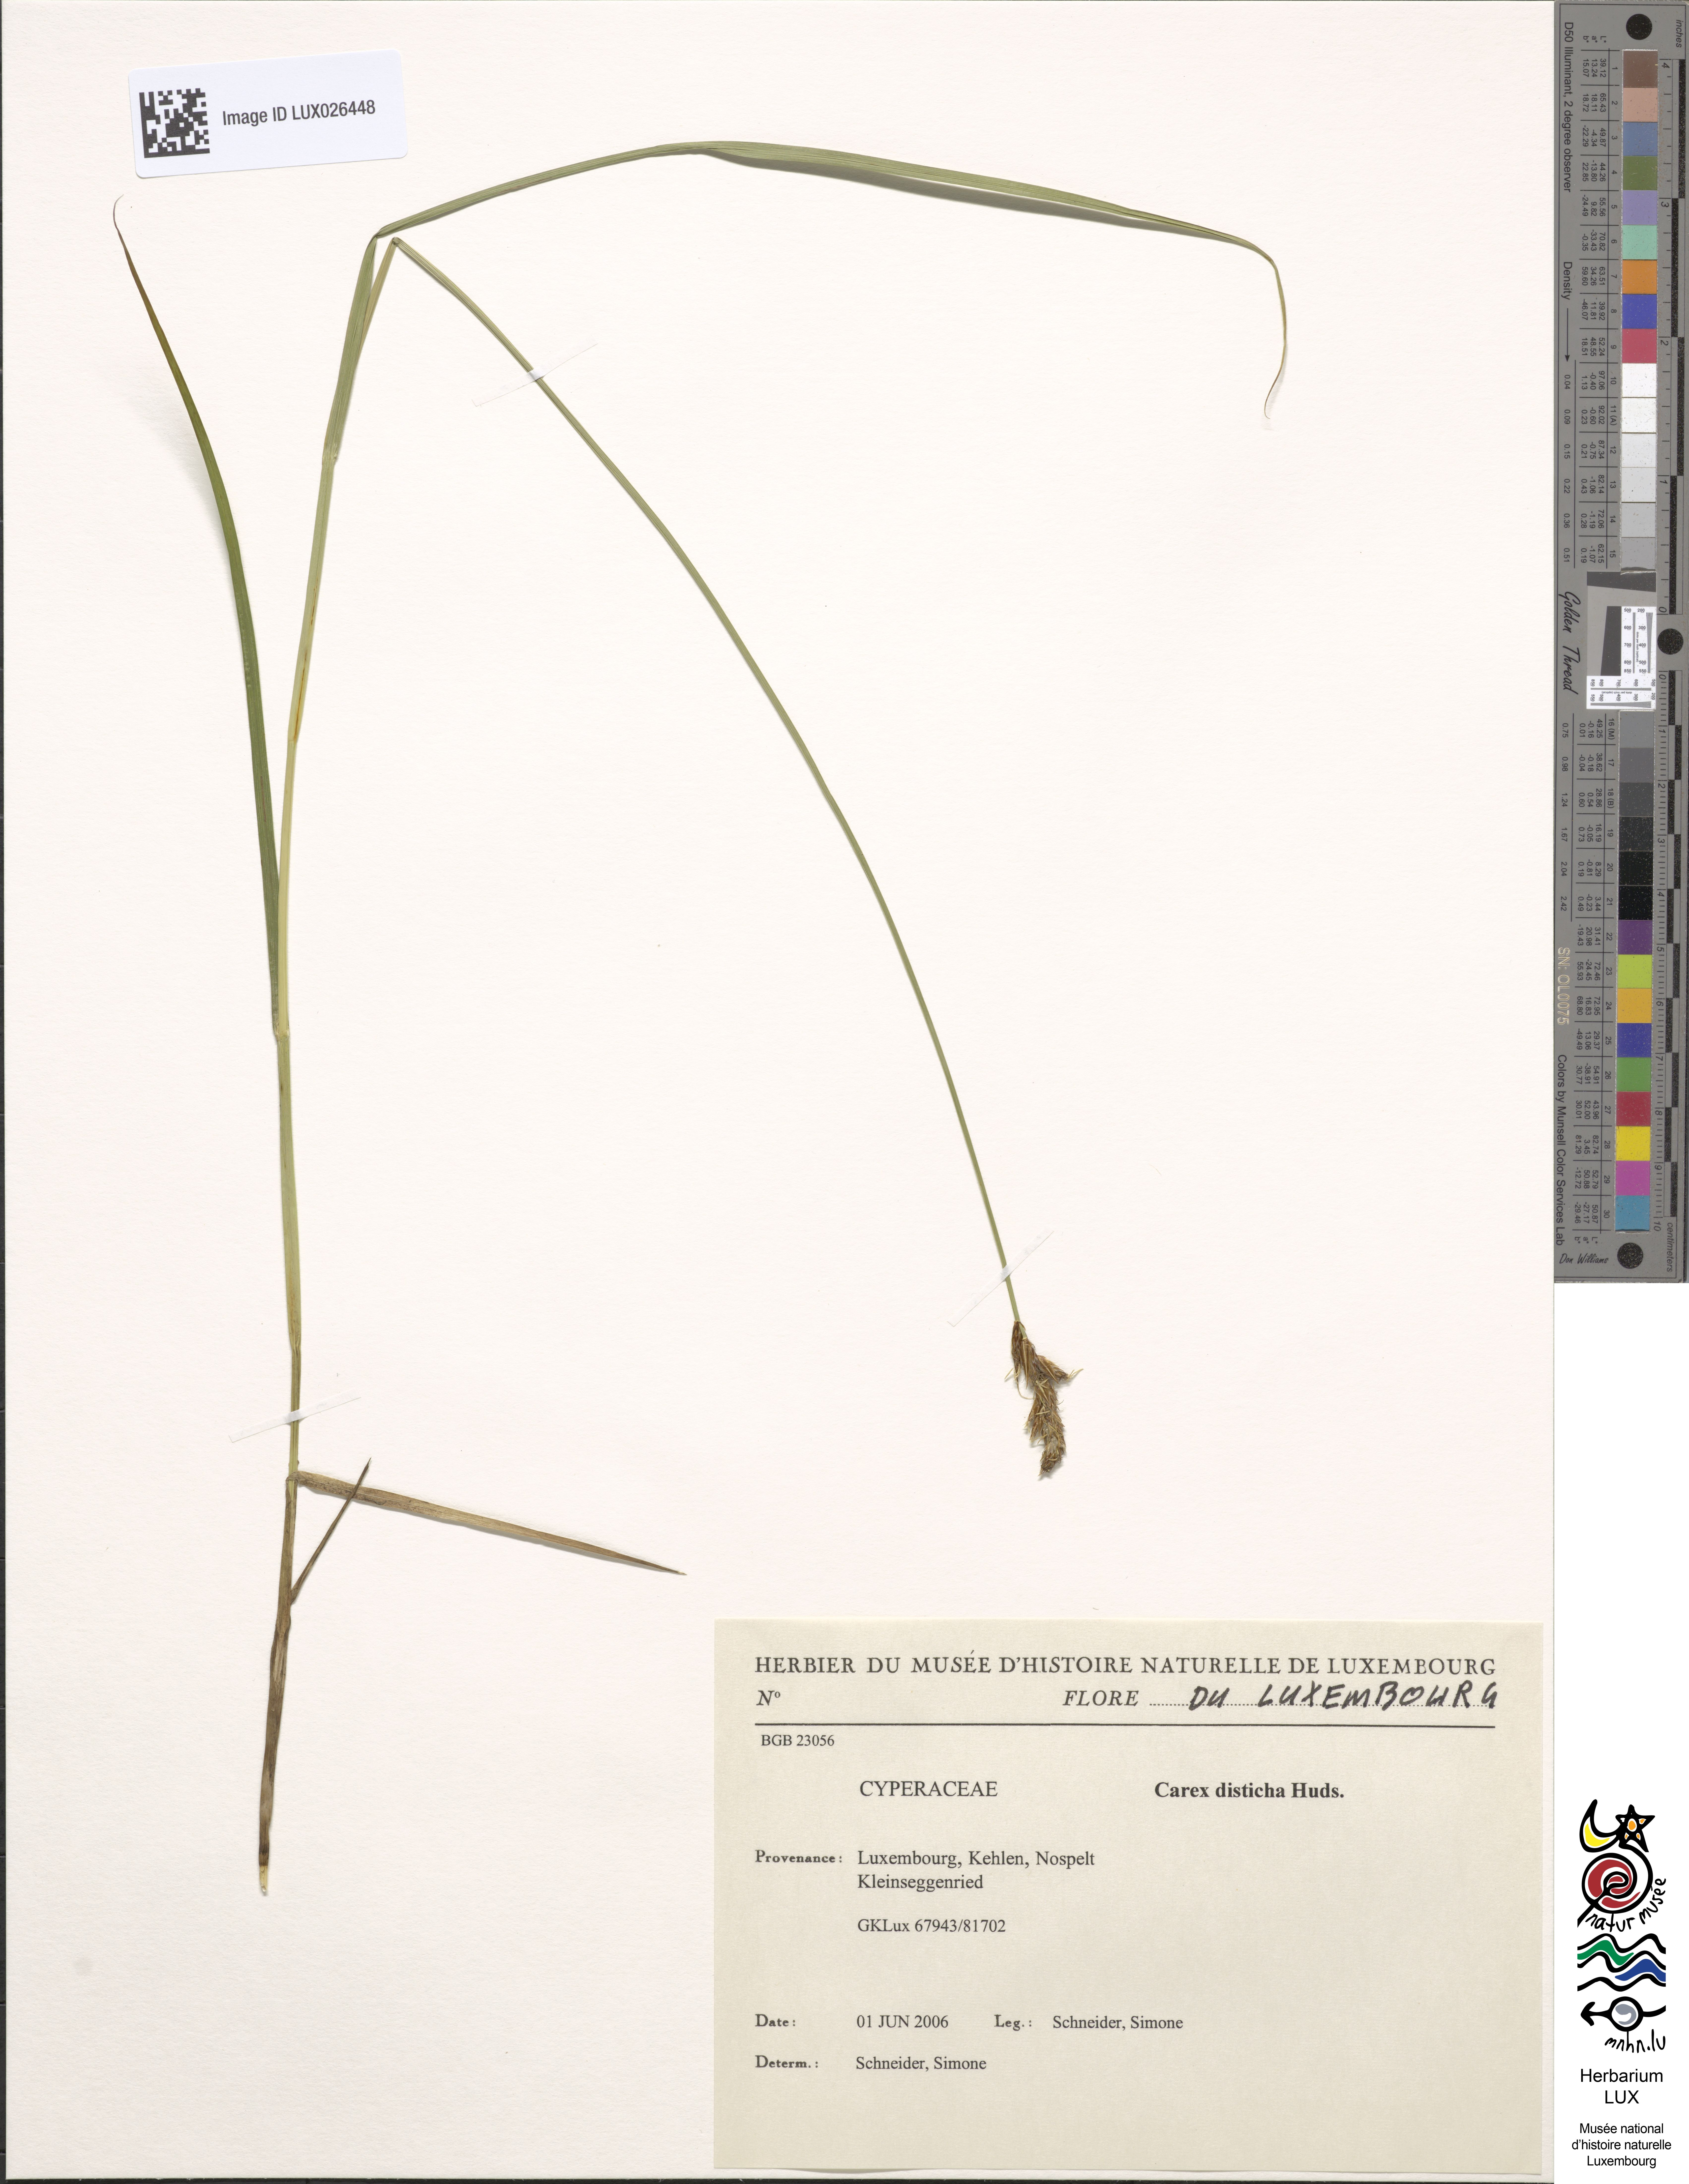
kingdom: Plantae
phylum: Tracheophyta
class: Liliopsida
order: Poales
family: Cyperaceae
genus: Carex
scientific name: Carex disticha
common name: Brown sedge
